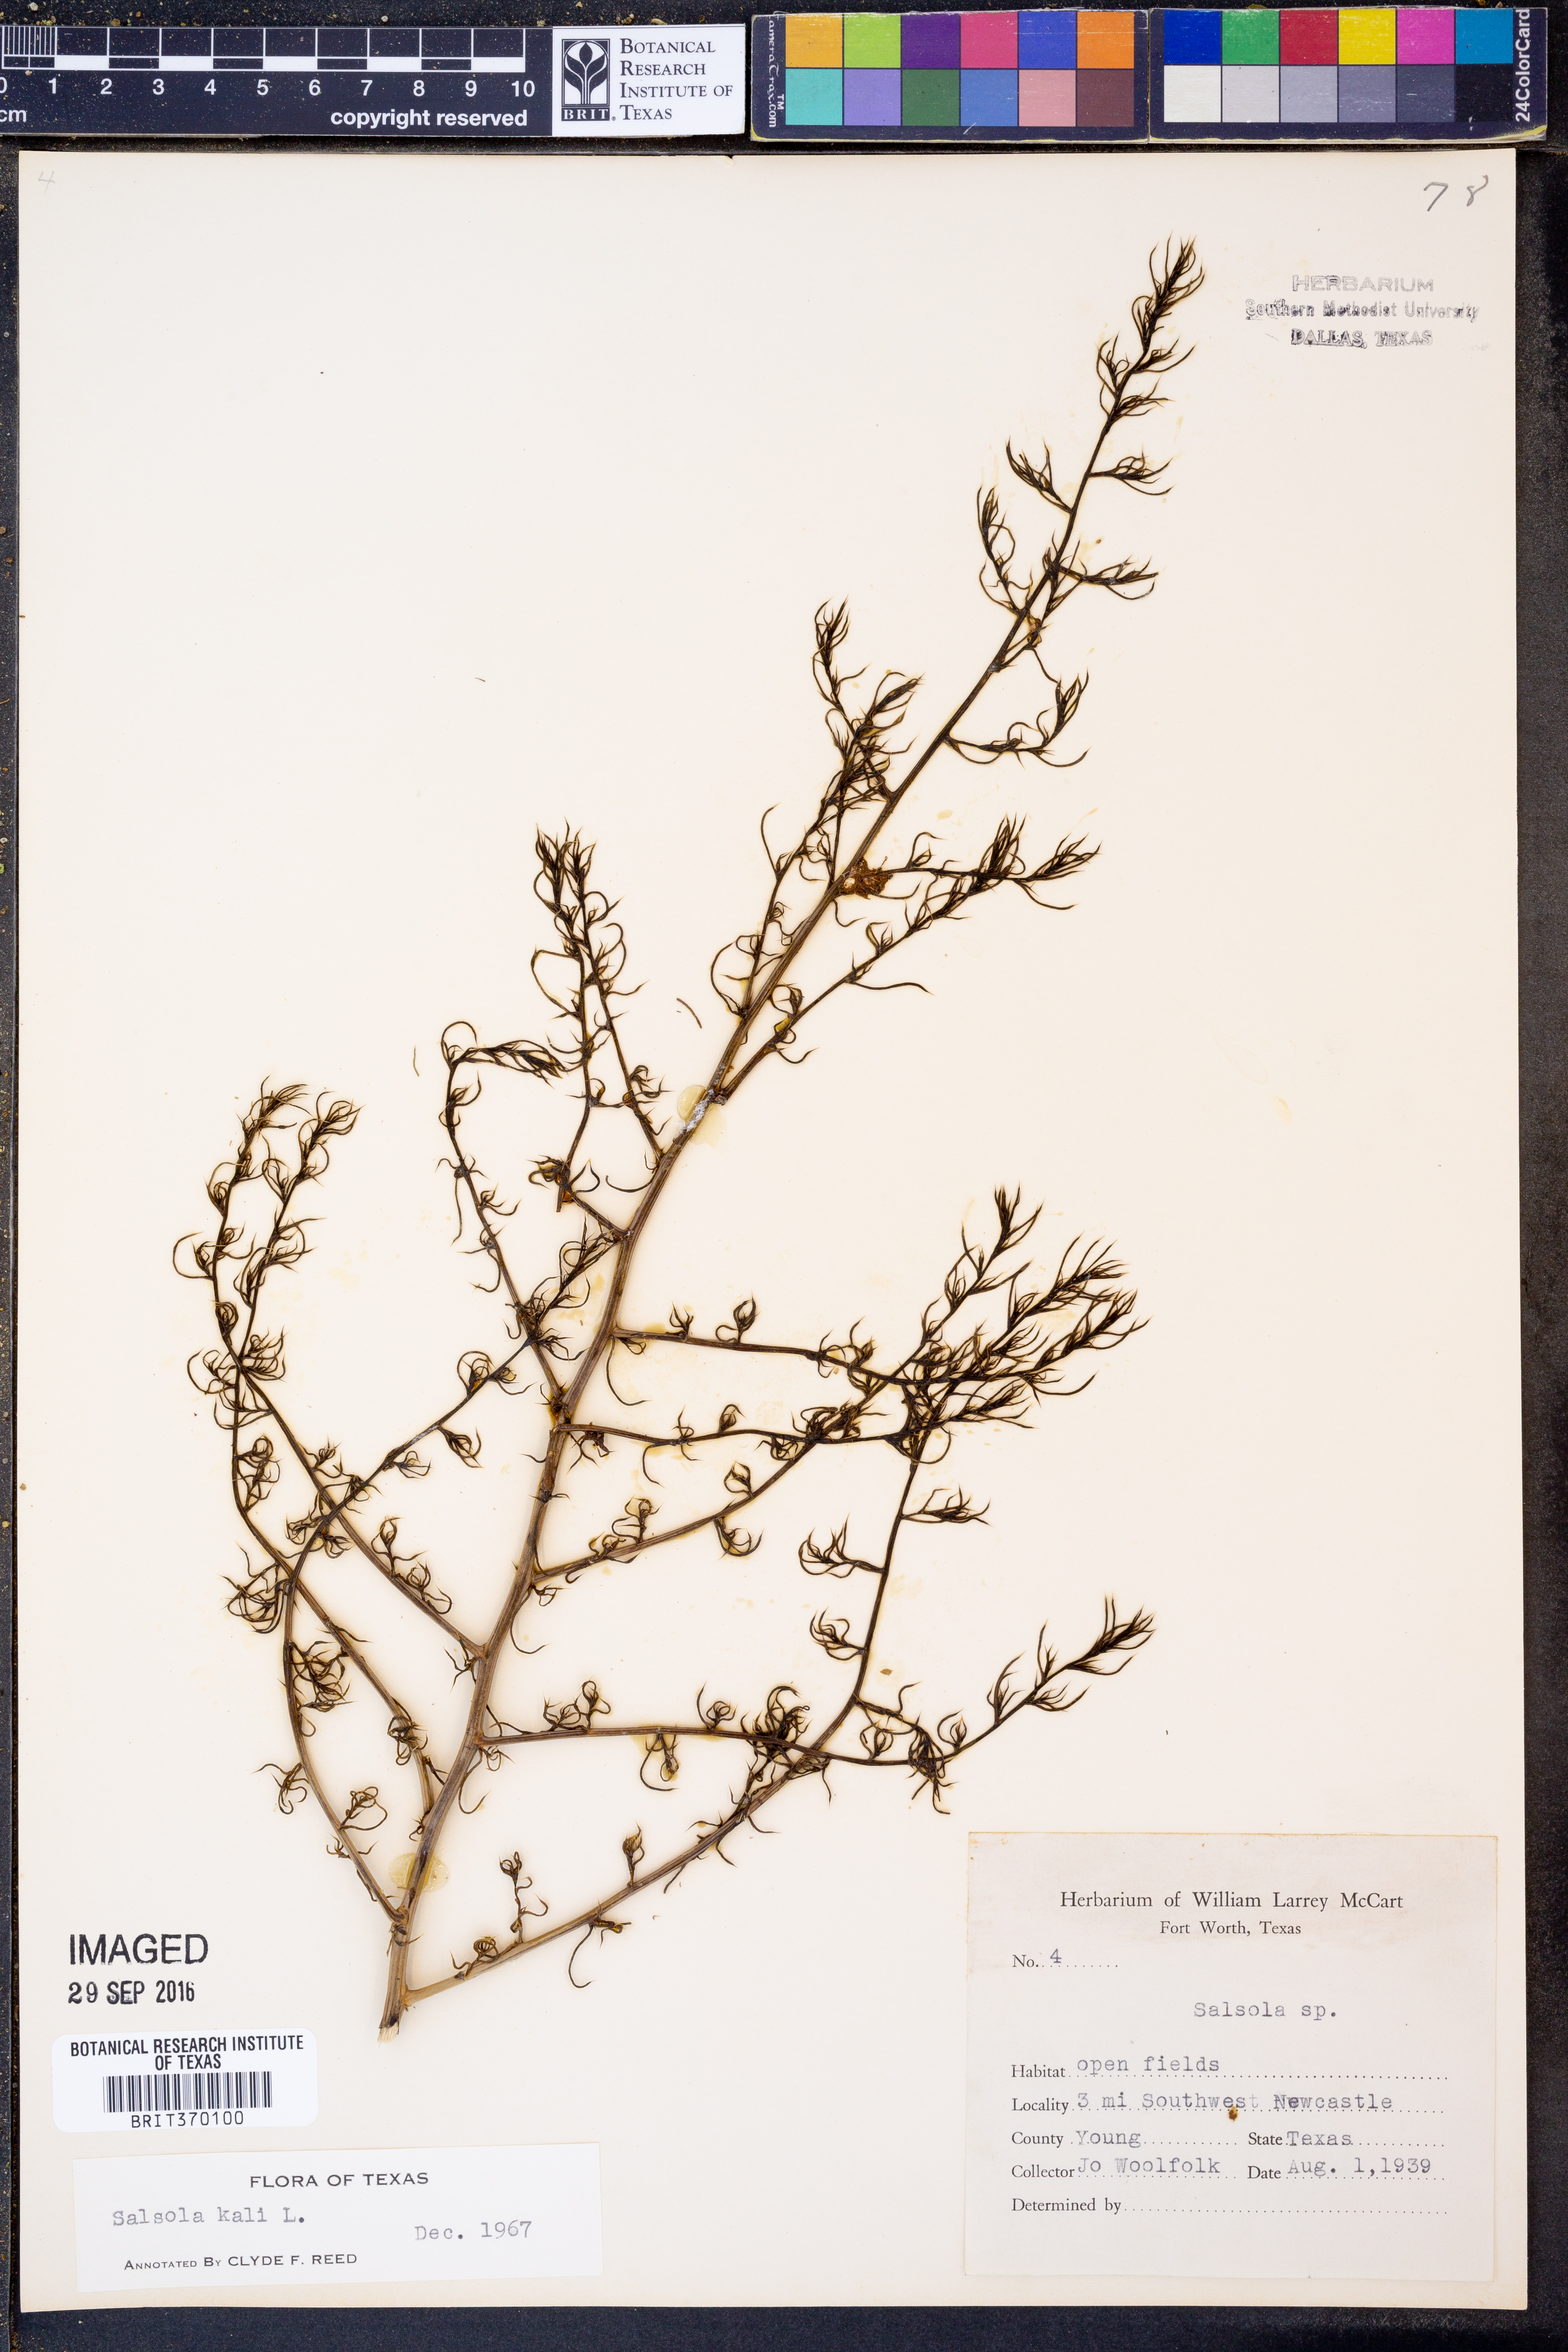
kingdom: Plantae
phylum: Tracheophyta
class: Magnoliopsida
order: Caryophyllales
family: Amaranthaceae
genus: Salsola
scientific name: Salsola kali
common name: Saltwort
